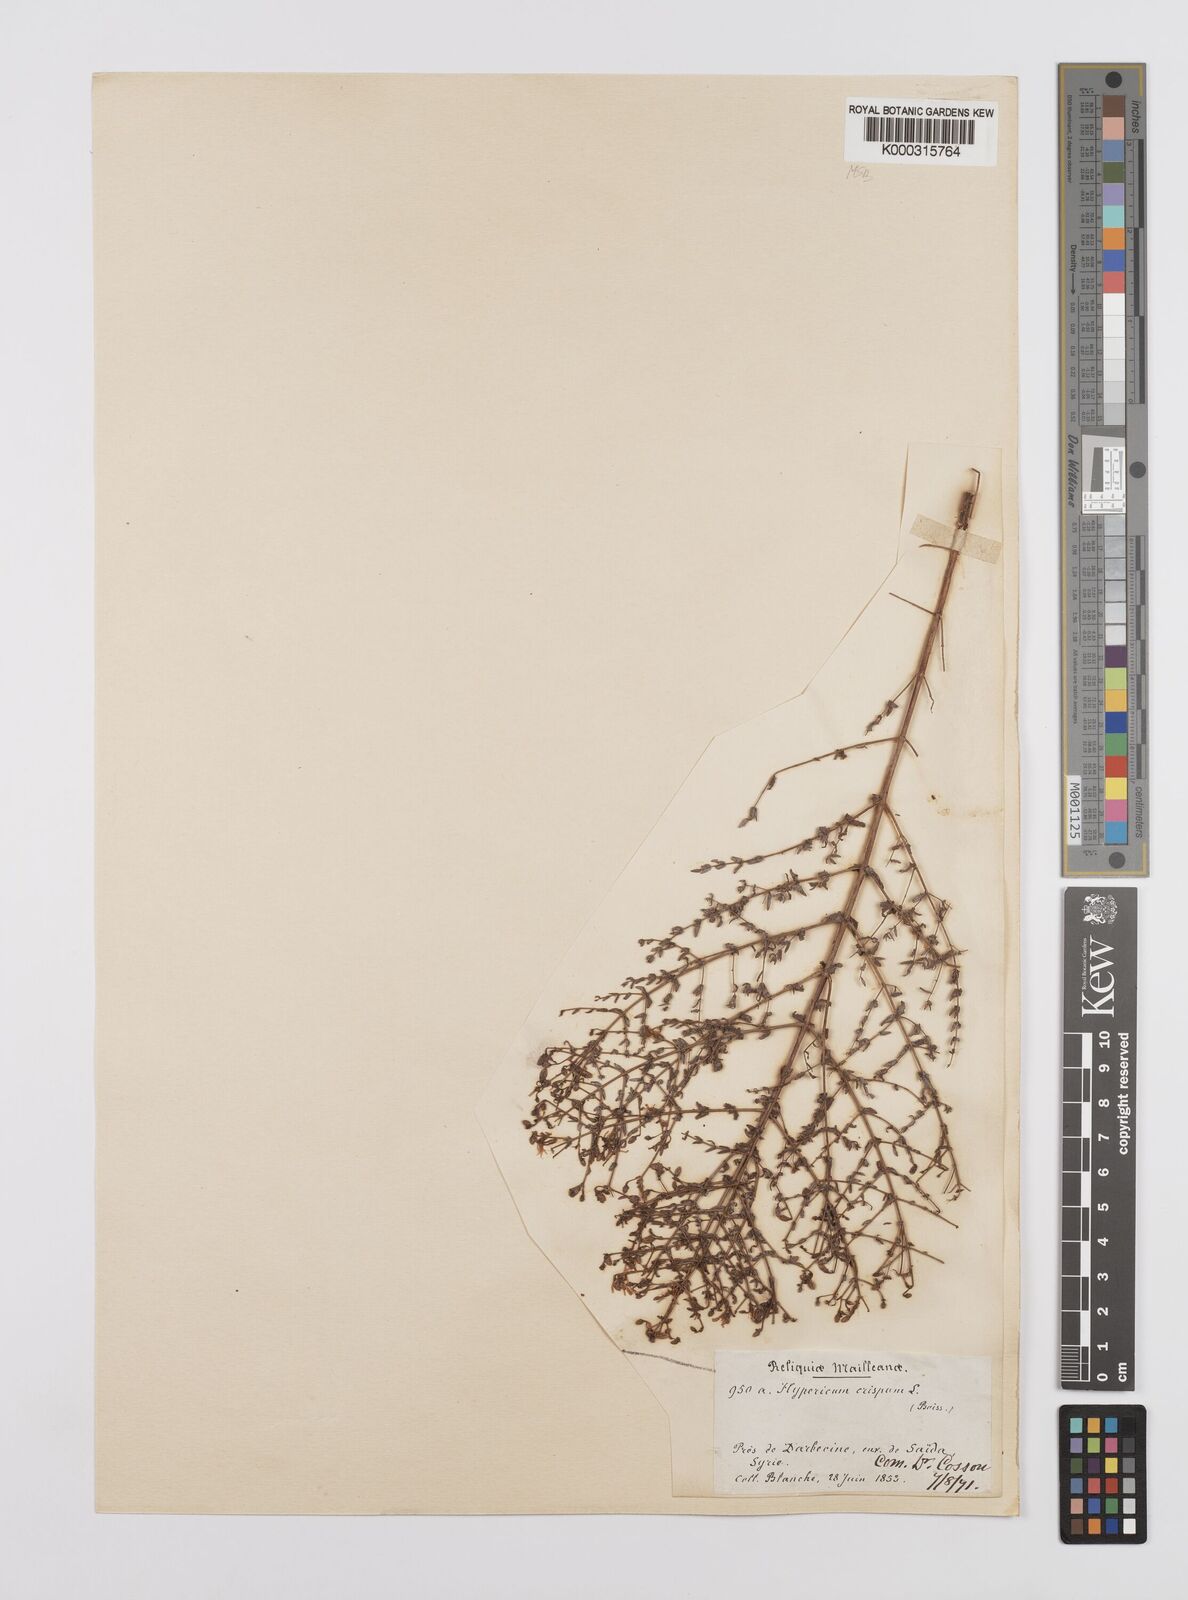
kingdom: Plantae
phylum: Tracheophyta
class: Magnoliopsida
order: Malpighiales
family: Hypericaceae
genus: Hypericum
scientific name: Hypericum triquetrifolium
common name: Tangled hypericum
